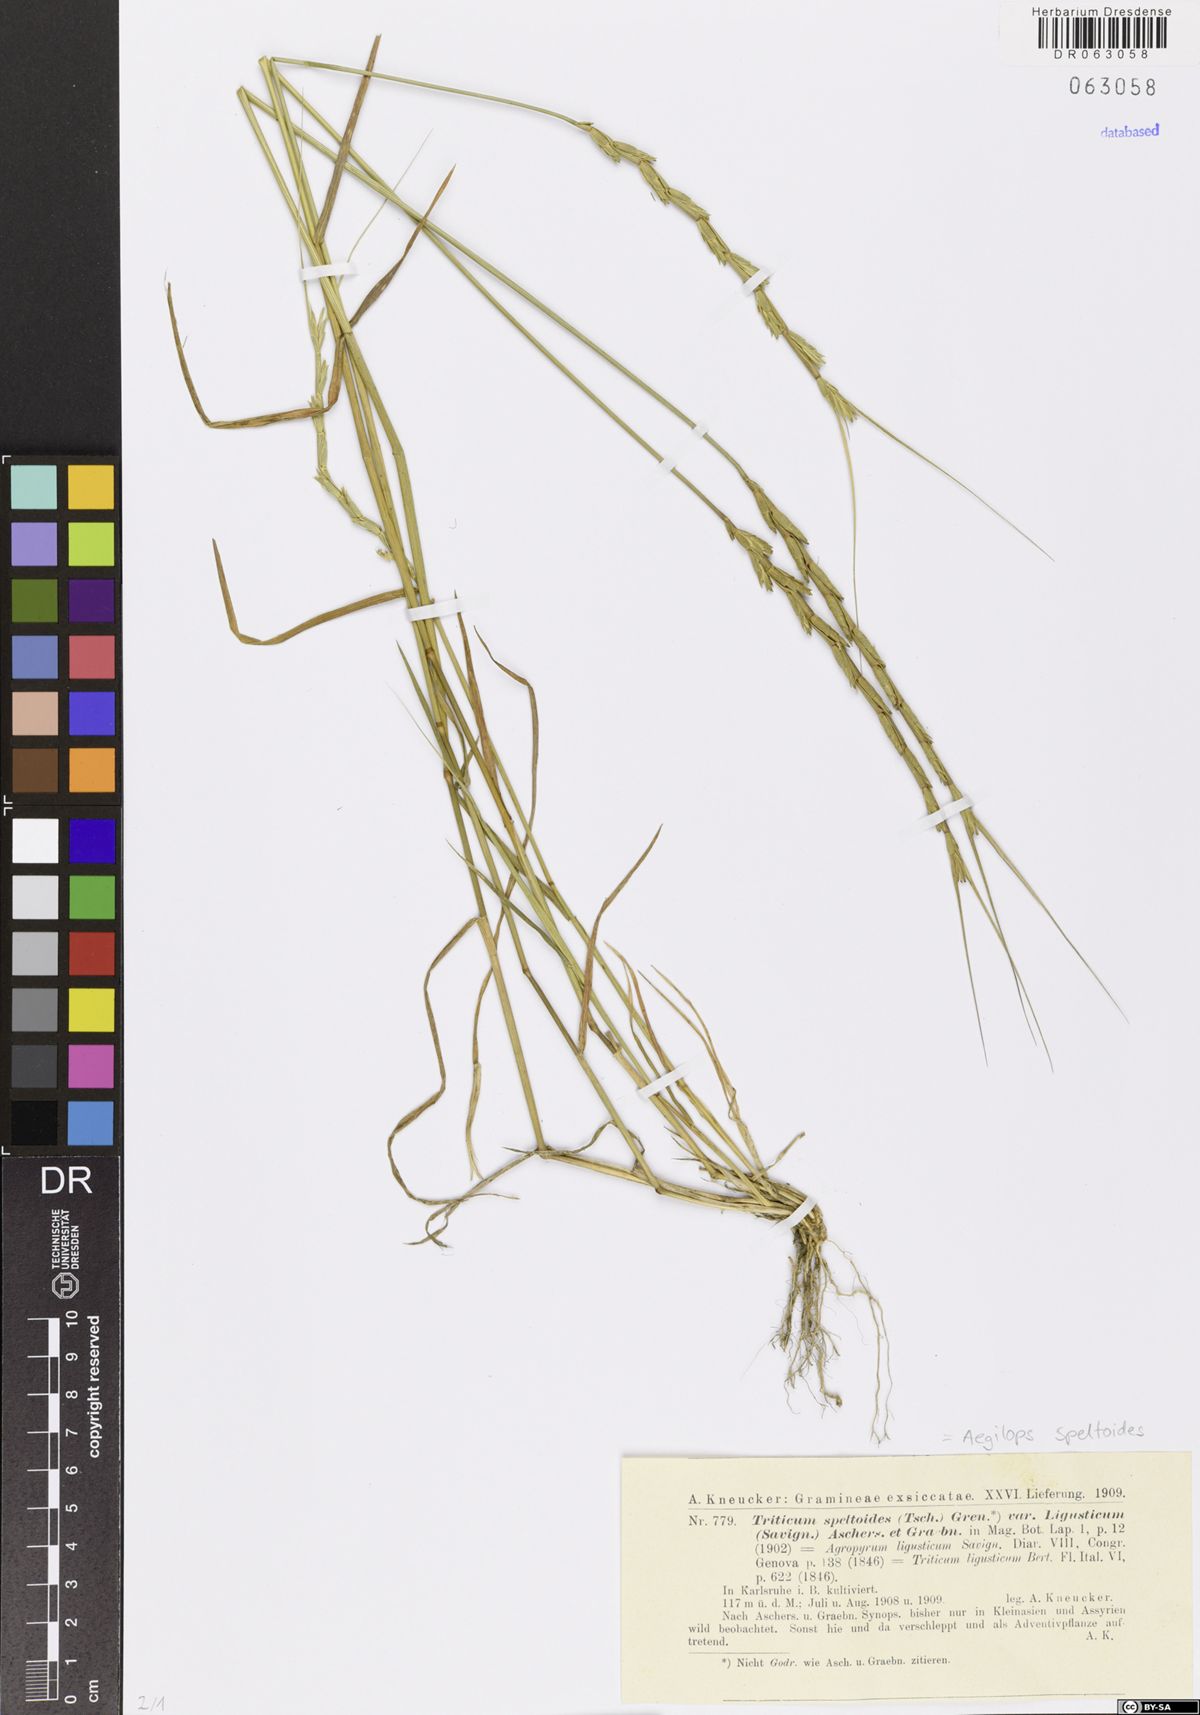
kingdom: Plantae
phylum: Tracheophyta
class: Liliopsida
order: Poales
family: Poaceae
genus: Aegilops
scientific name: Aegilops speltoides
